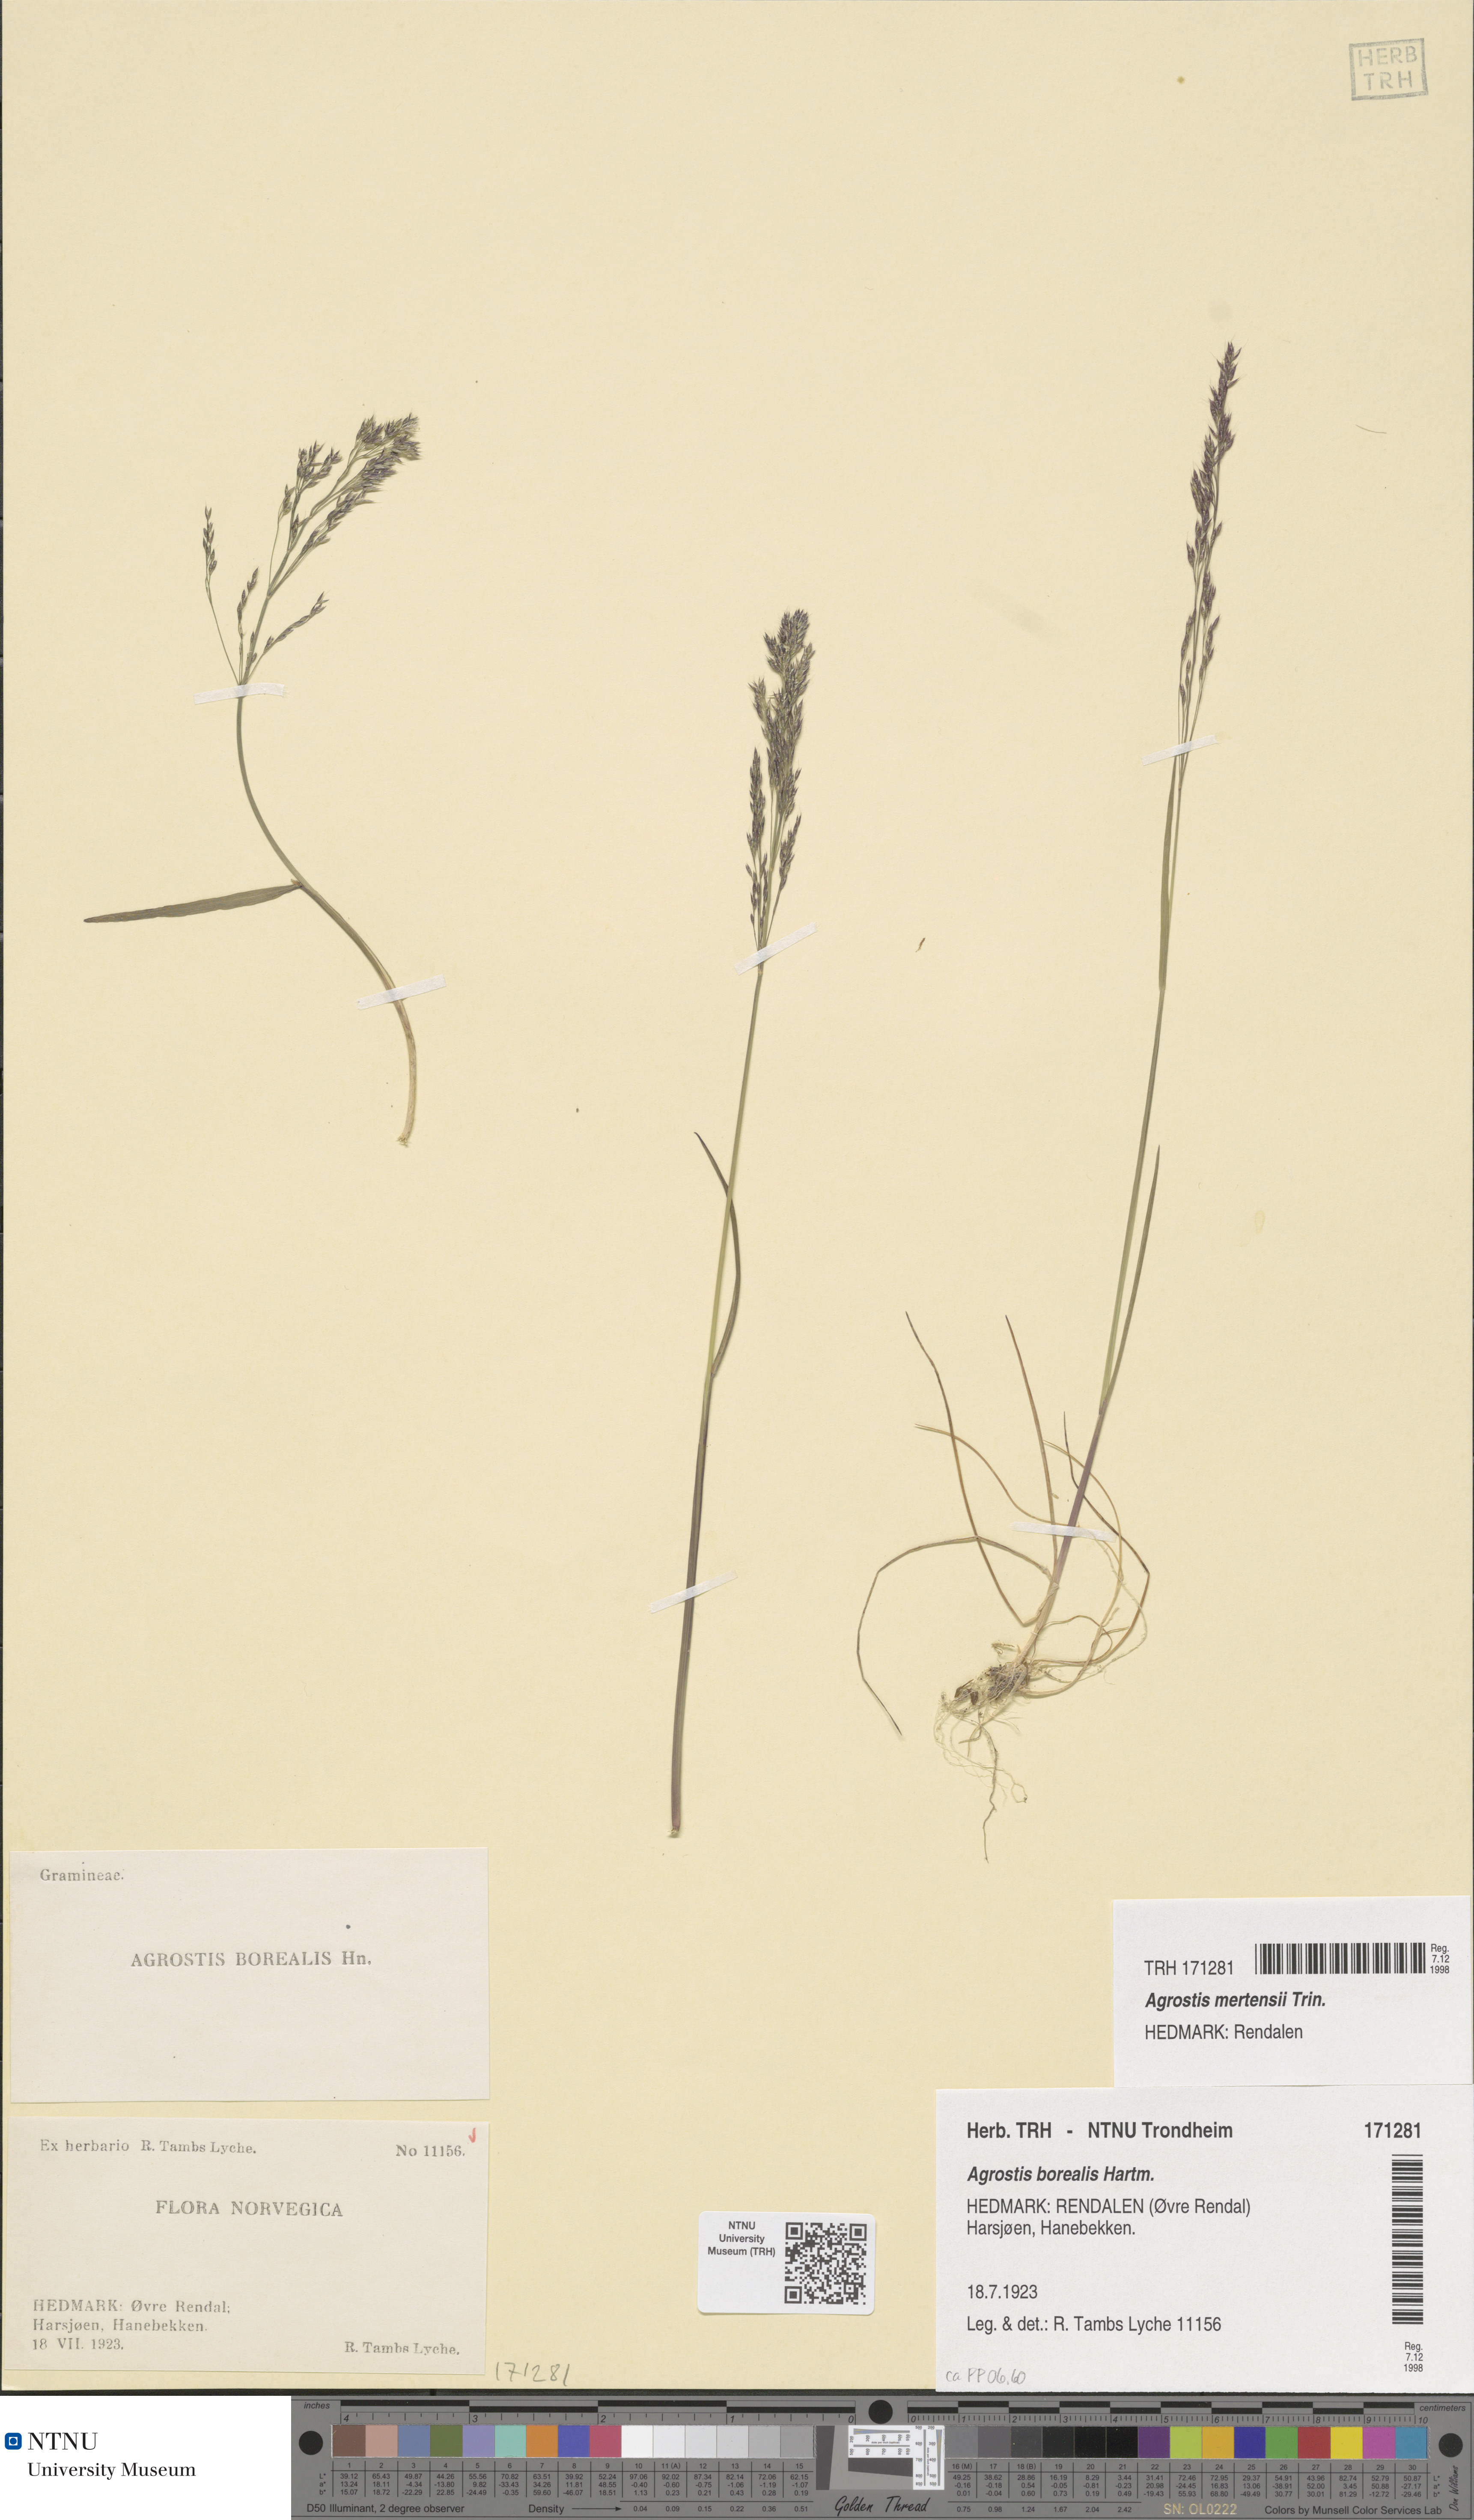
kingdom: Plantae
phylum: Tracheophyta
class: Liliopsida
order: Poales
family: Poaceae
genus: Agrostis
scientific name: Agrostis mertensii
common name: Northern bent
